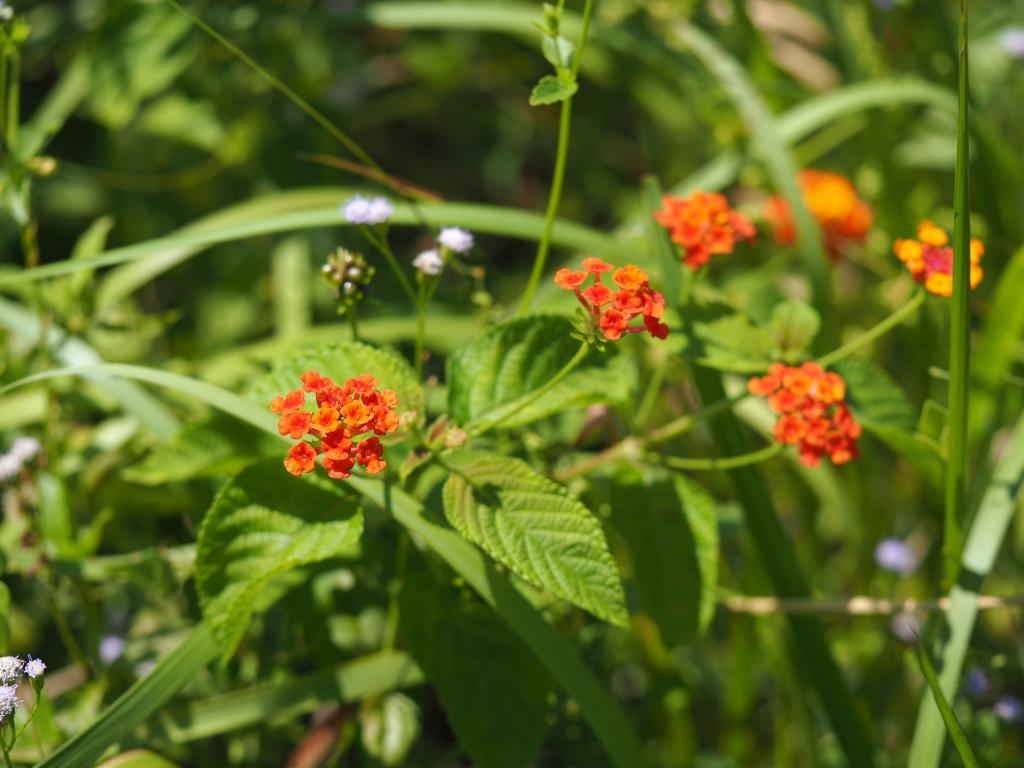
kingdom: Plantae
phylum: Tracheophyta
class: Magnoliopsida
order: Lamiales
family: Verbenaceae
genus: Lantana
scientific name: Lantana camara
